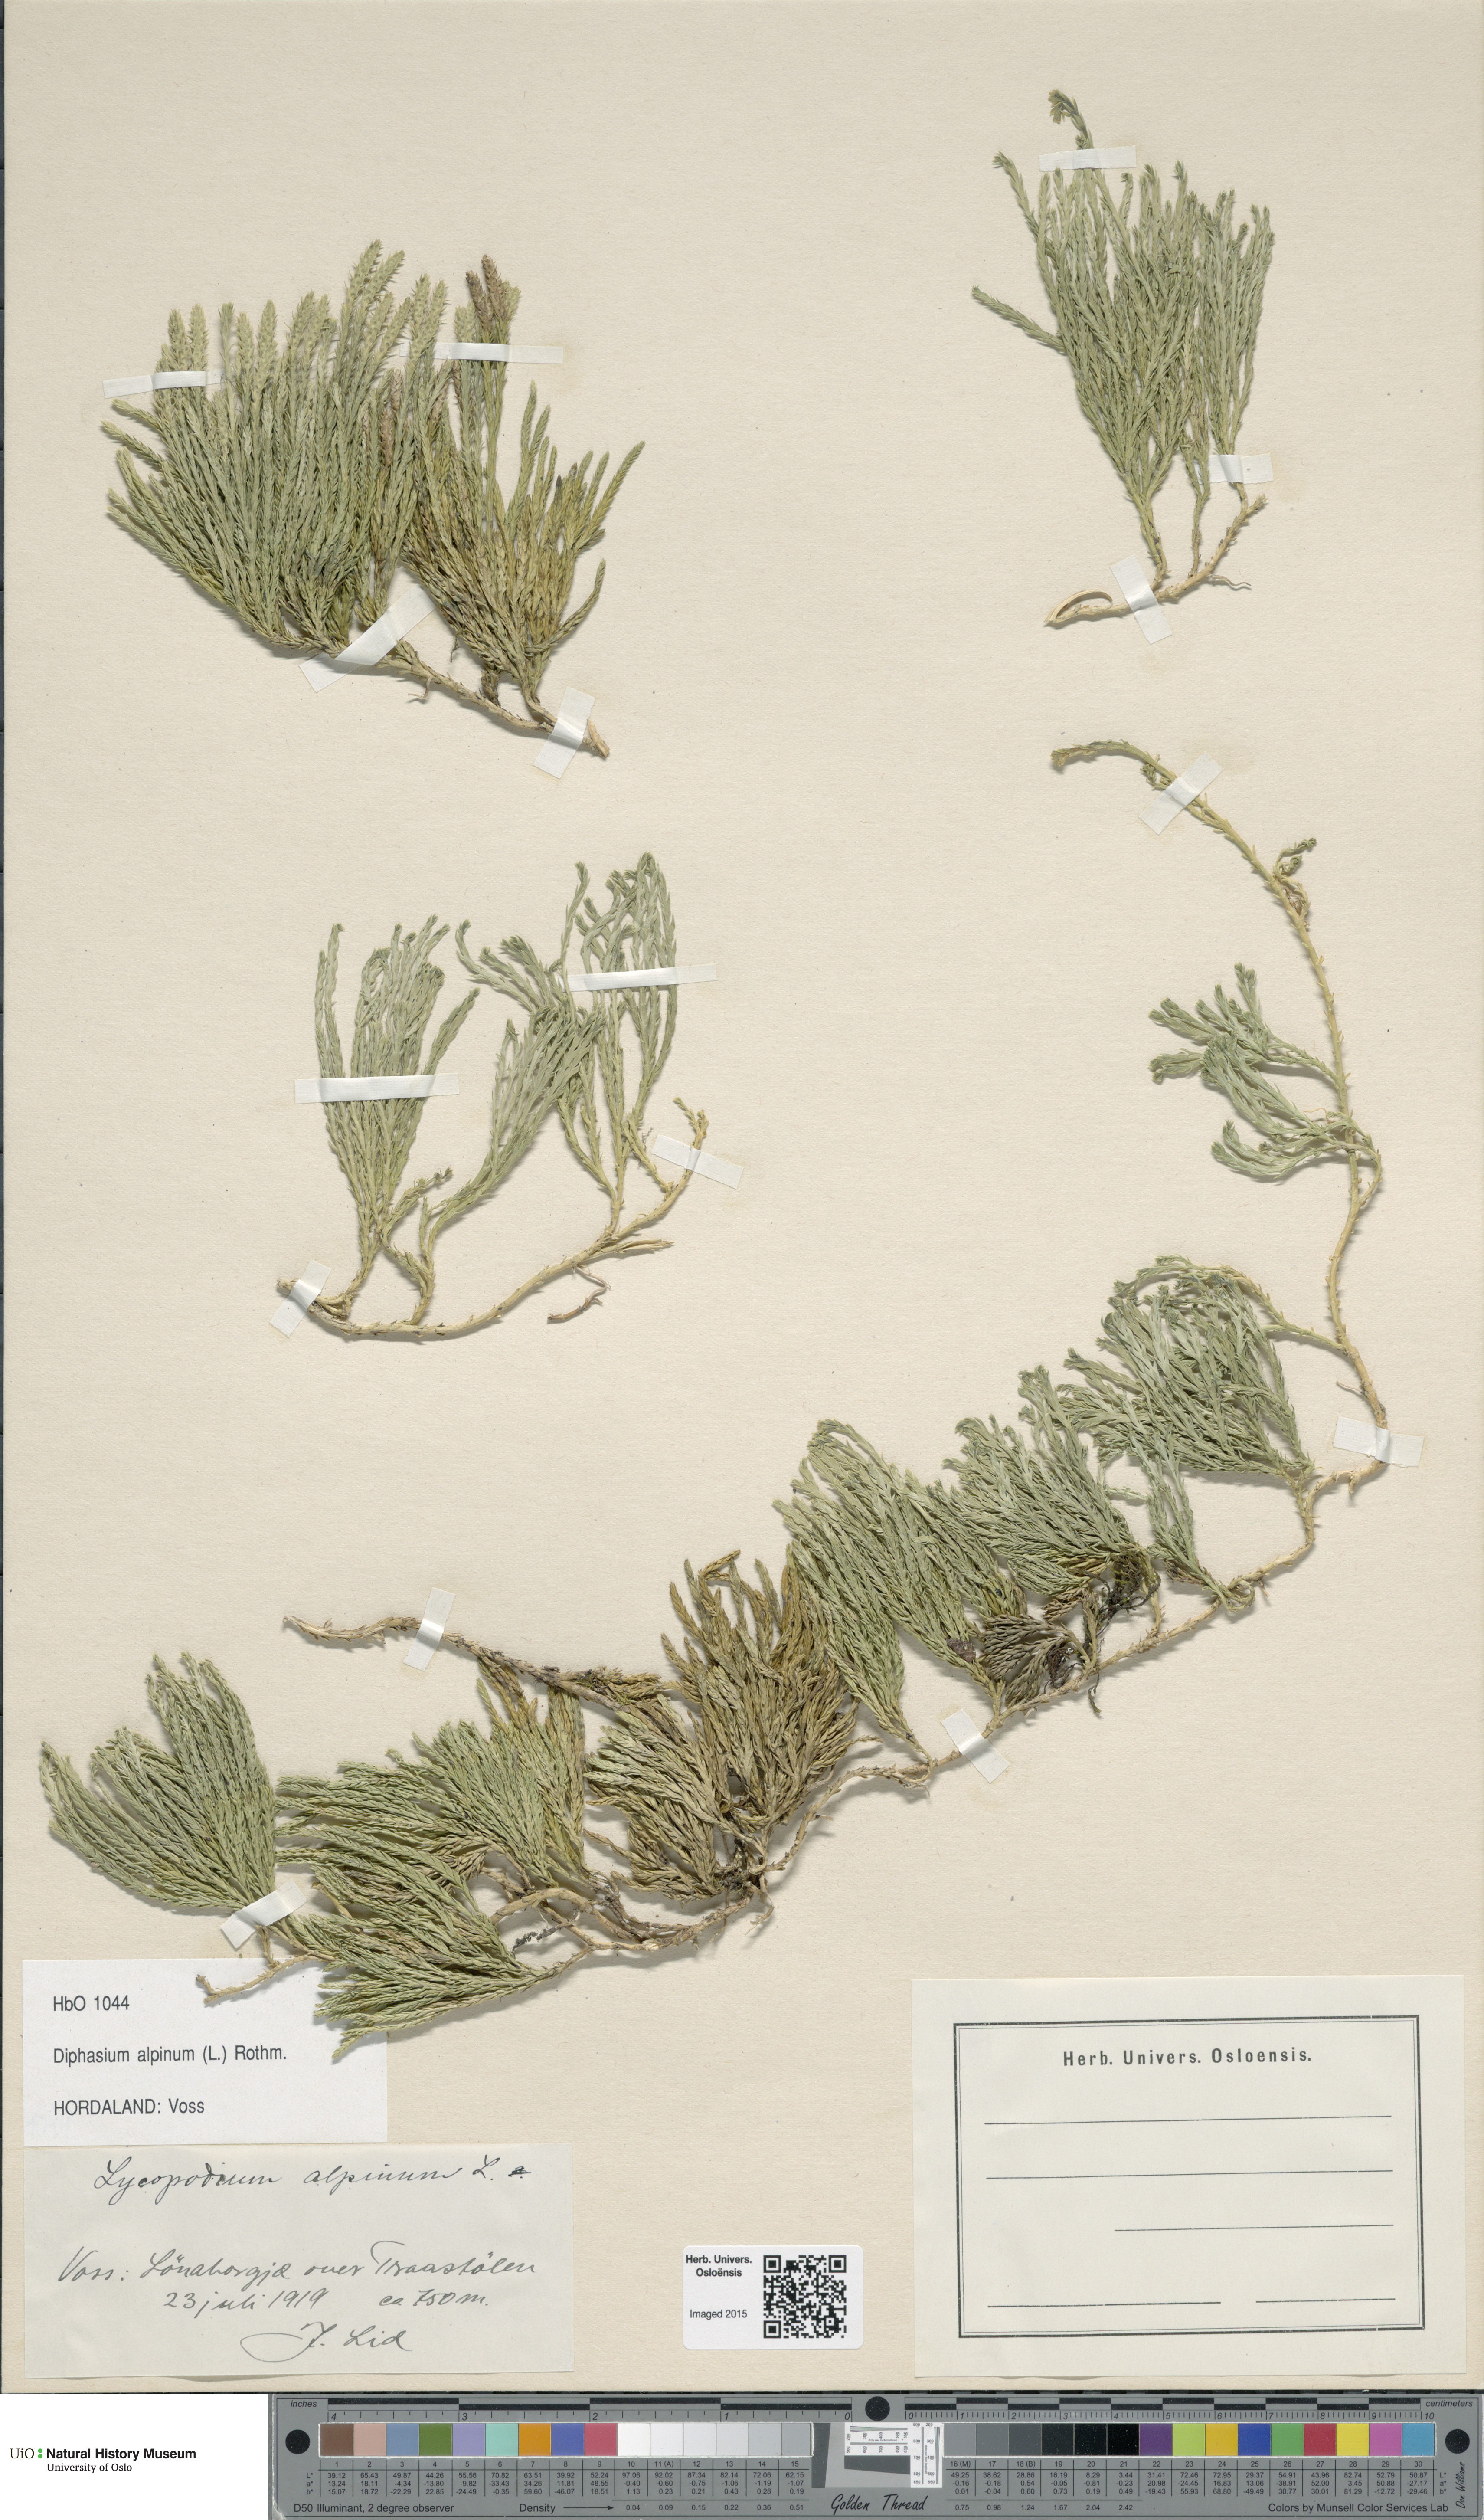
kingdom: Plantae
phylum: Tracheophyta
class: Lycopodiopsida
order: Lycopodiales
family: Lycopodiaceae
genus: Diphasiastrum
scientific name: Diphasiastrum alpinum
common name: Alpine clubmoss
